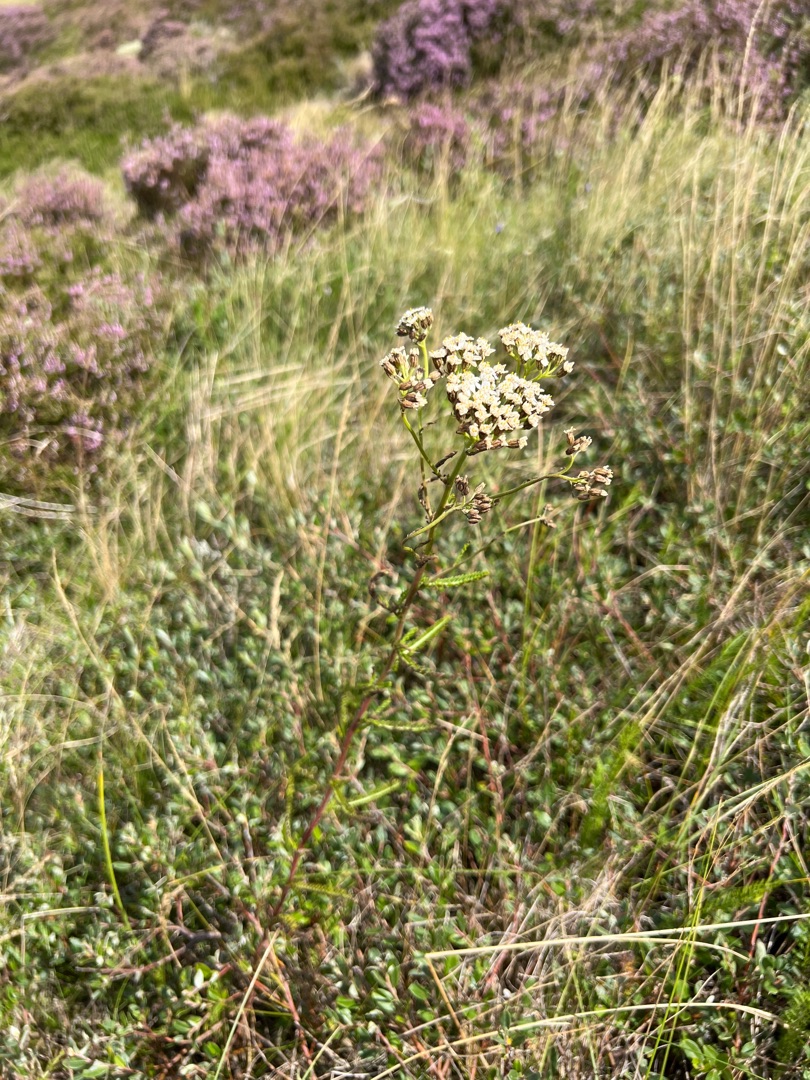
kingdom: Plantae
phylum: Tracheophyta
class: Magnoliopsida
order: Asterales
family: Asteraceae
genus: Achillea
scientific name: Achillea millefolium
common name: Almindelig røllike
